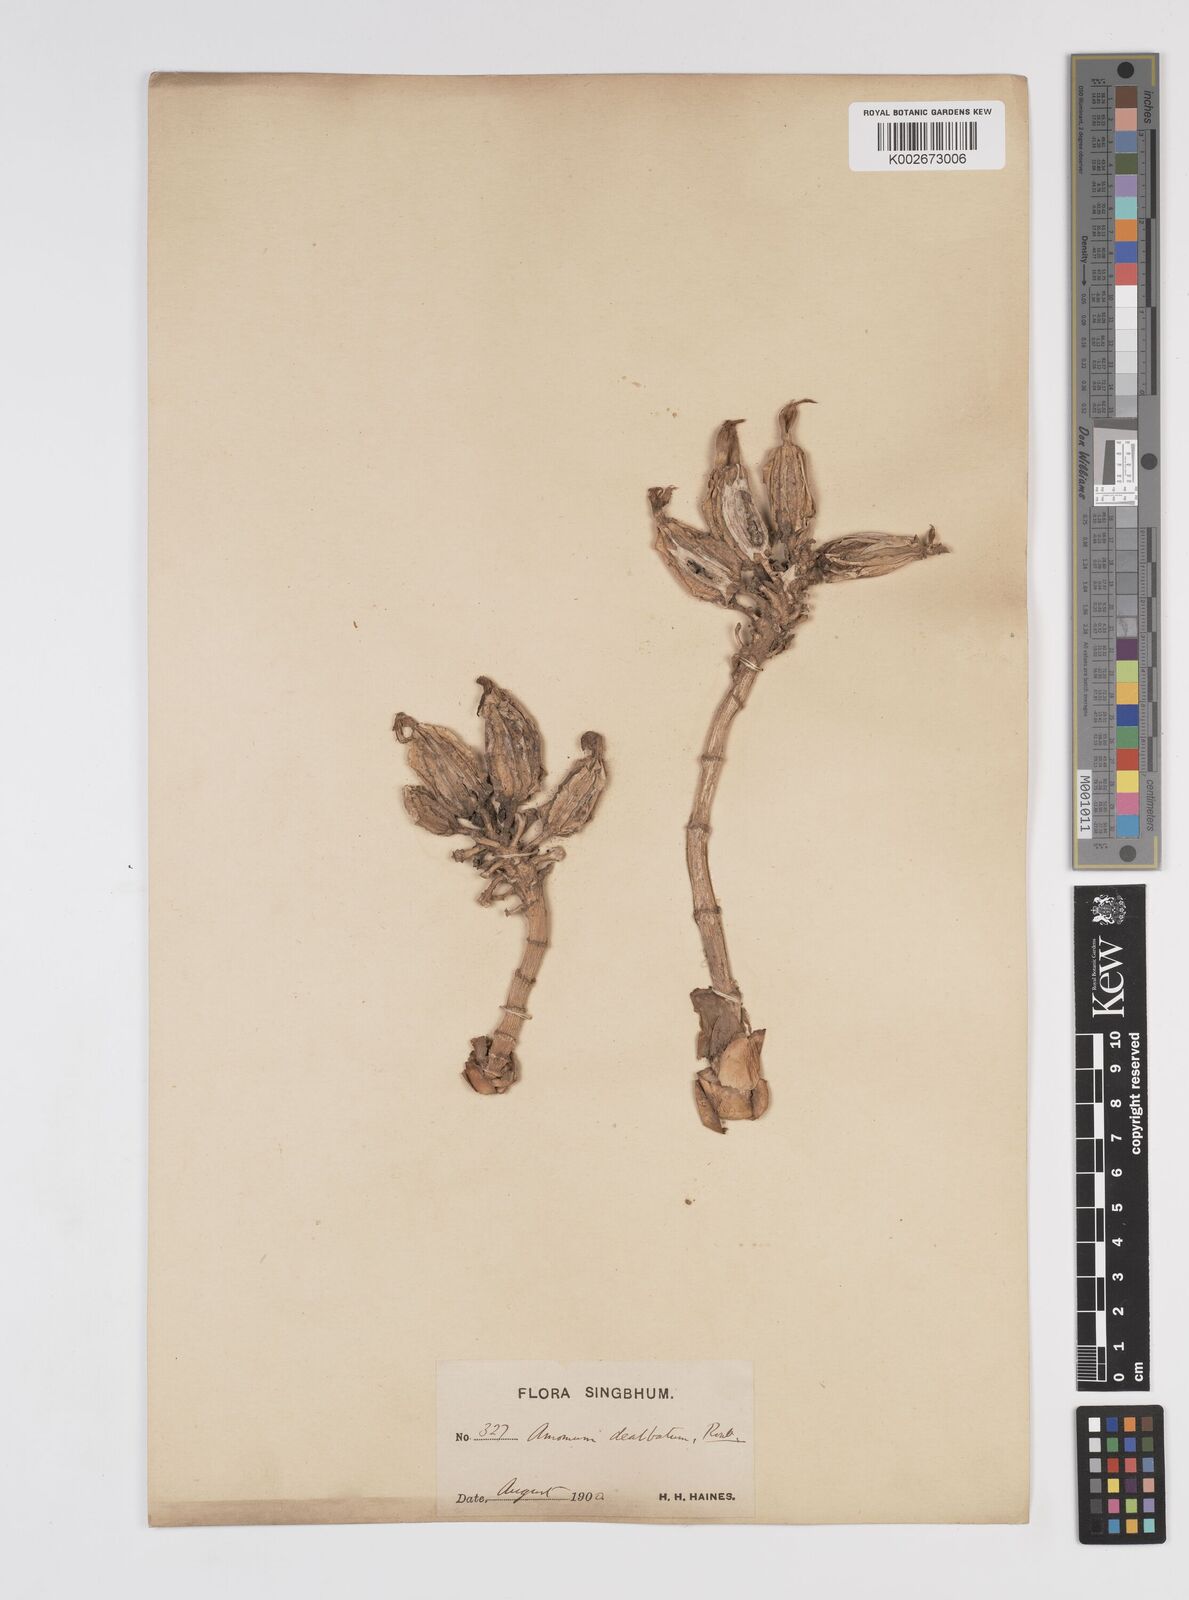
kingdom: Plantae
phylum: Tracheophyta
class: Liliopsida
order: Zingiberales
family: Zingiberaceae
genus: Amomum
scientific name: Amomum dealbatum
